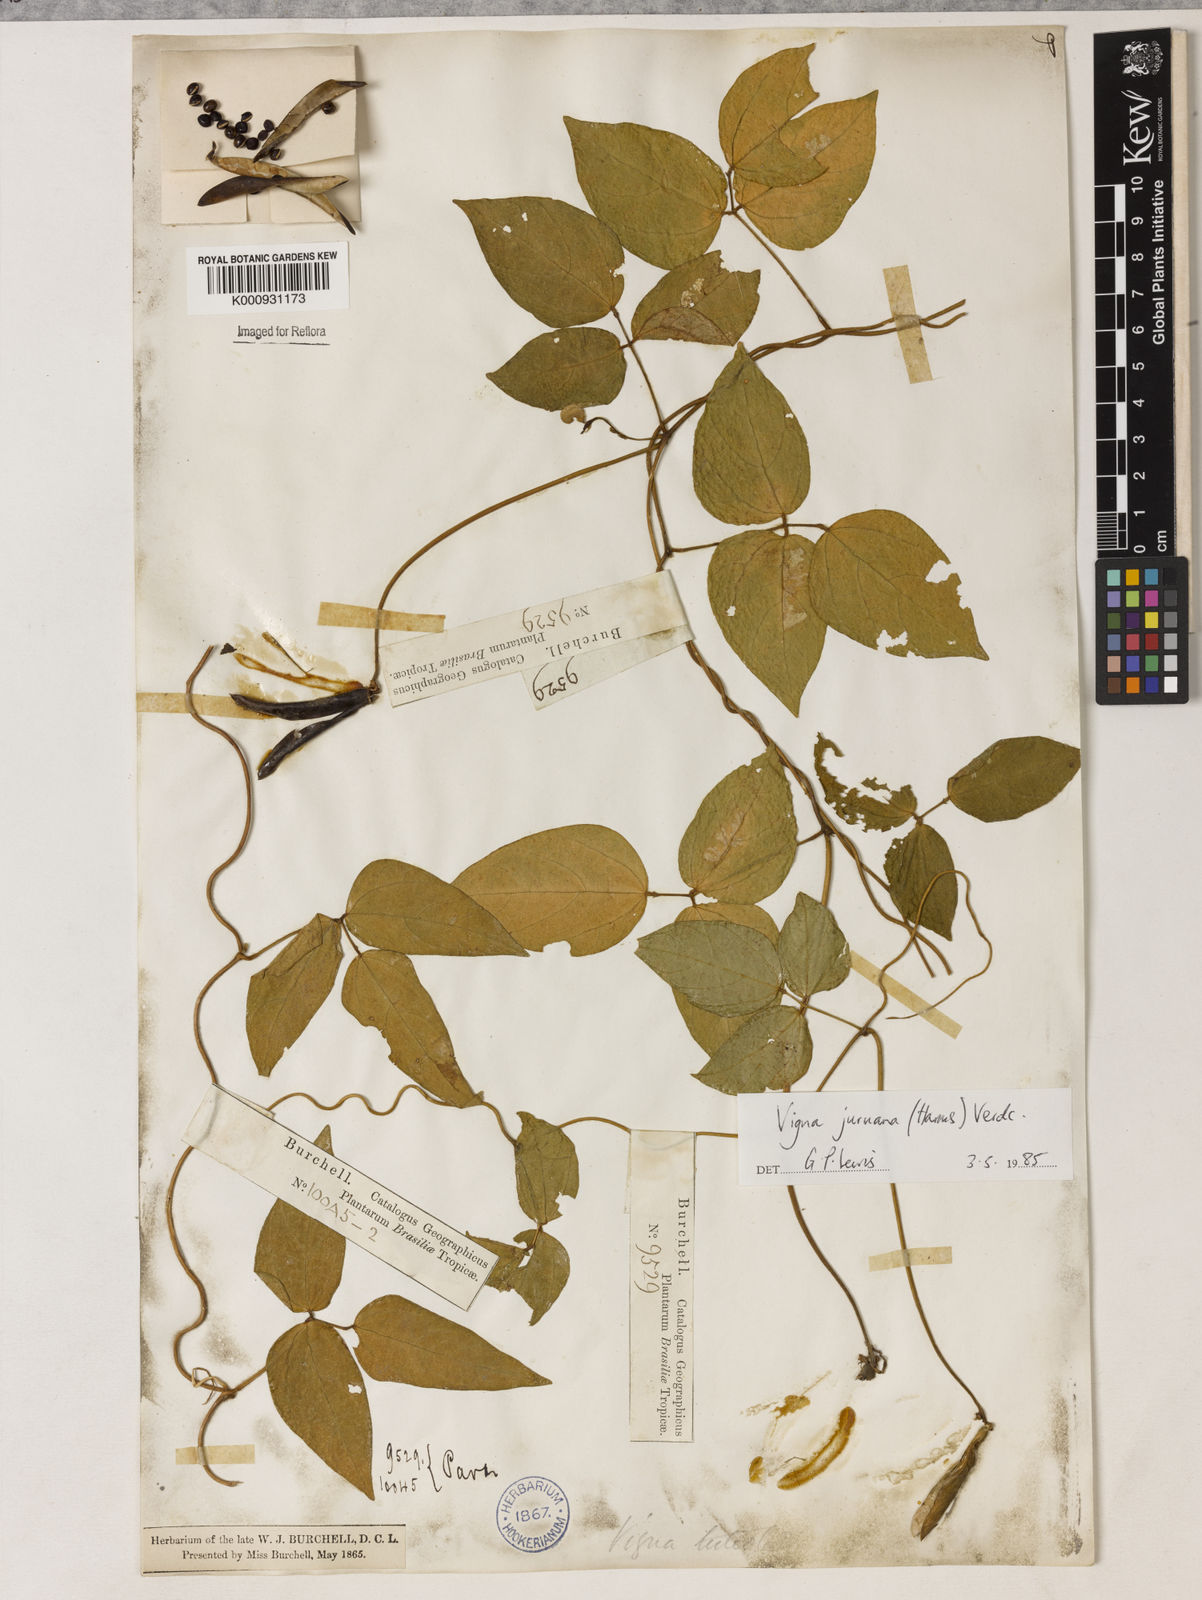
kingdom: Plantae
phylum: Tracheophyta
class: Magnoliopsida
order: Fabales
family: Fabaceae
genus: Vigna
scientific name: Vigna juruana
